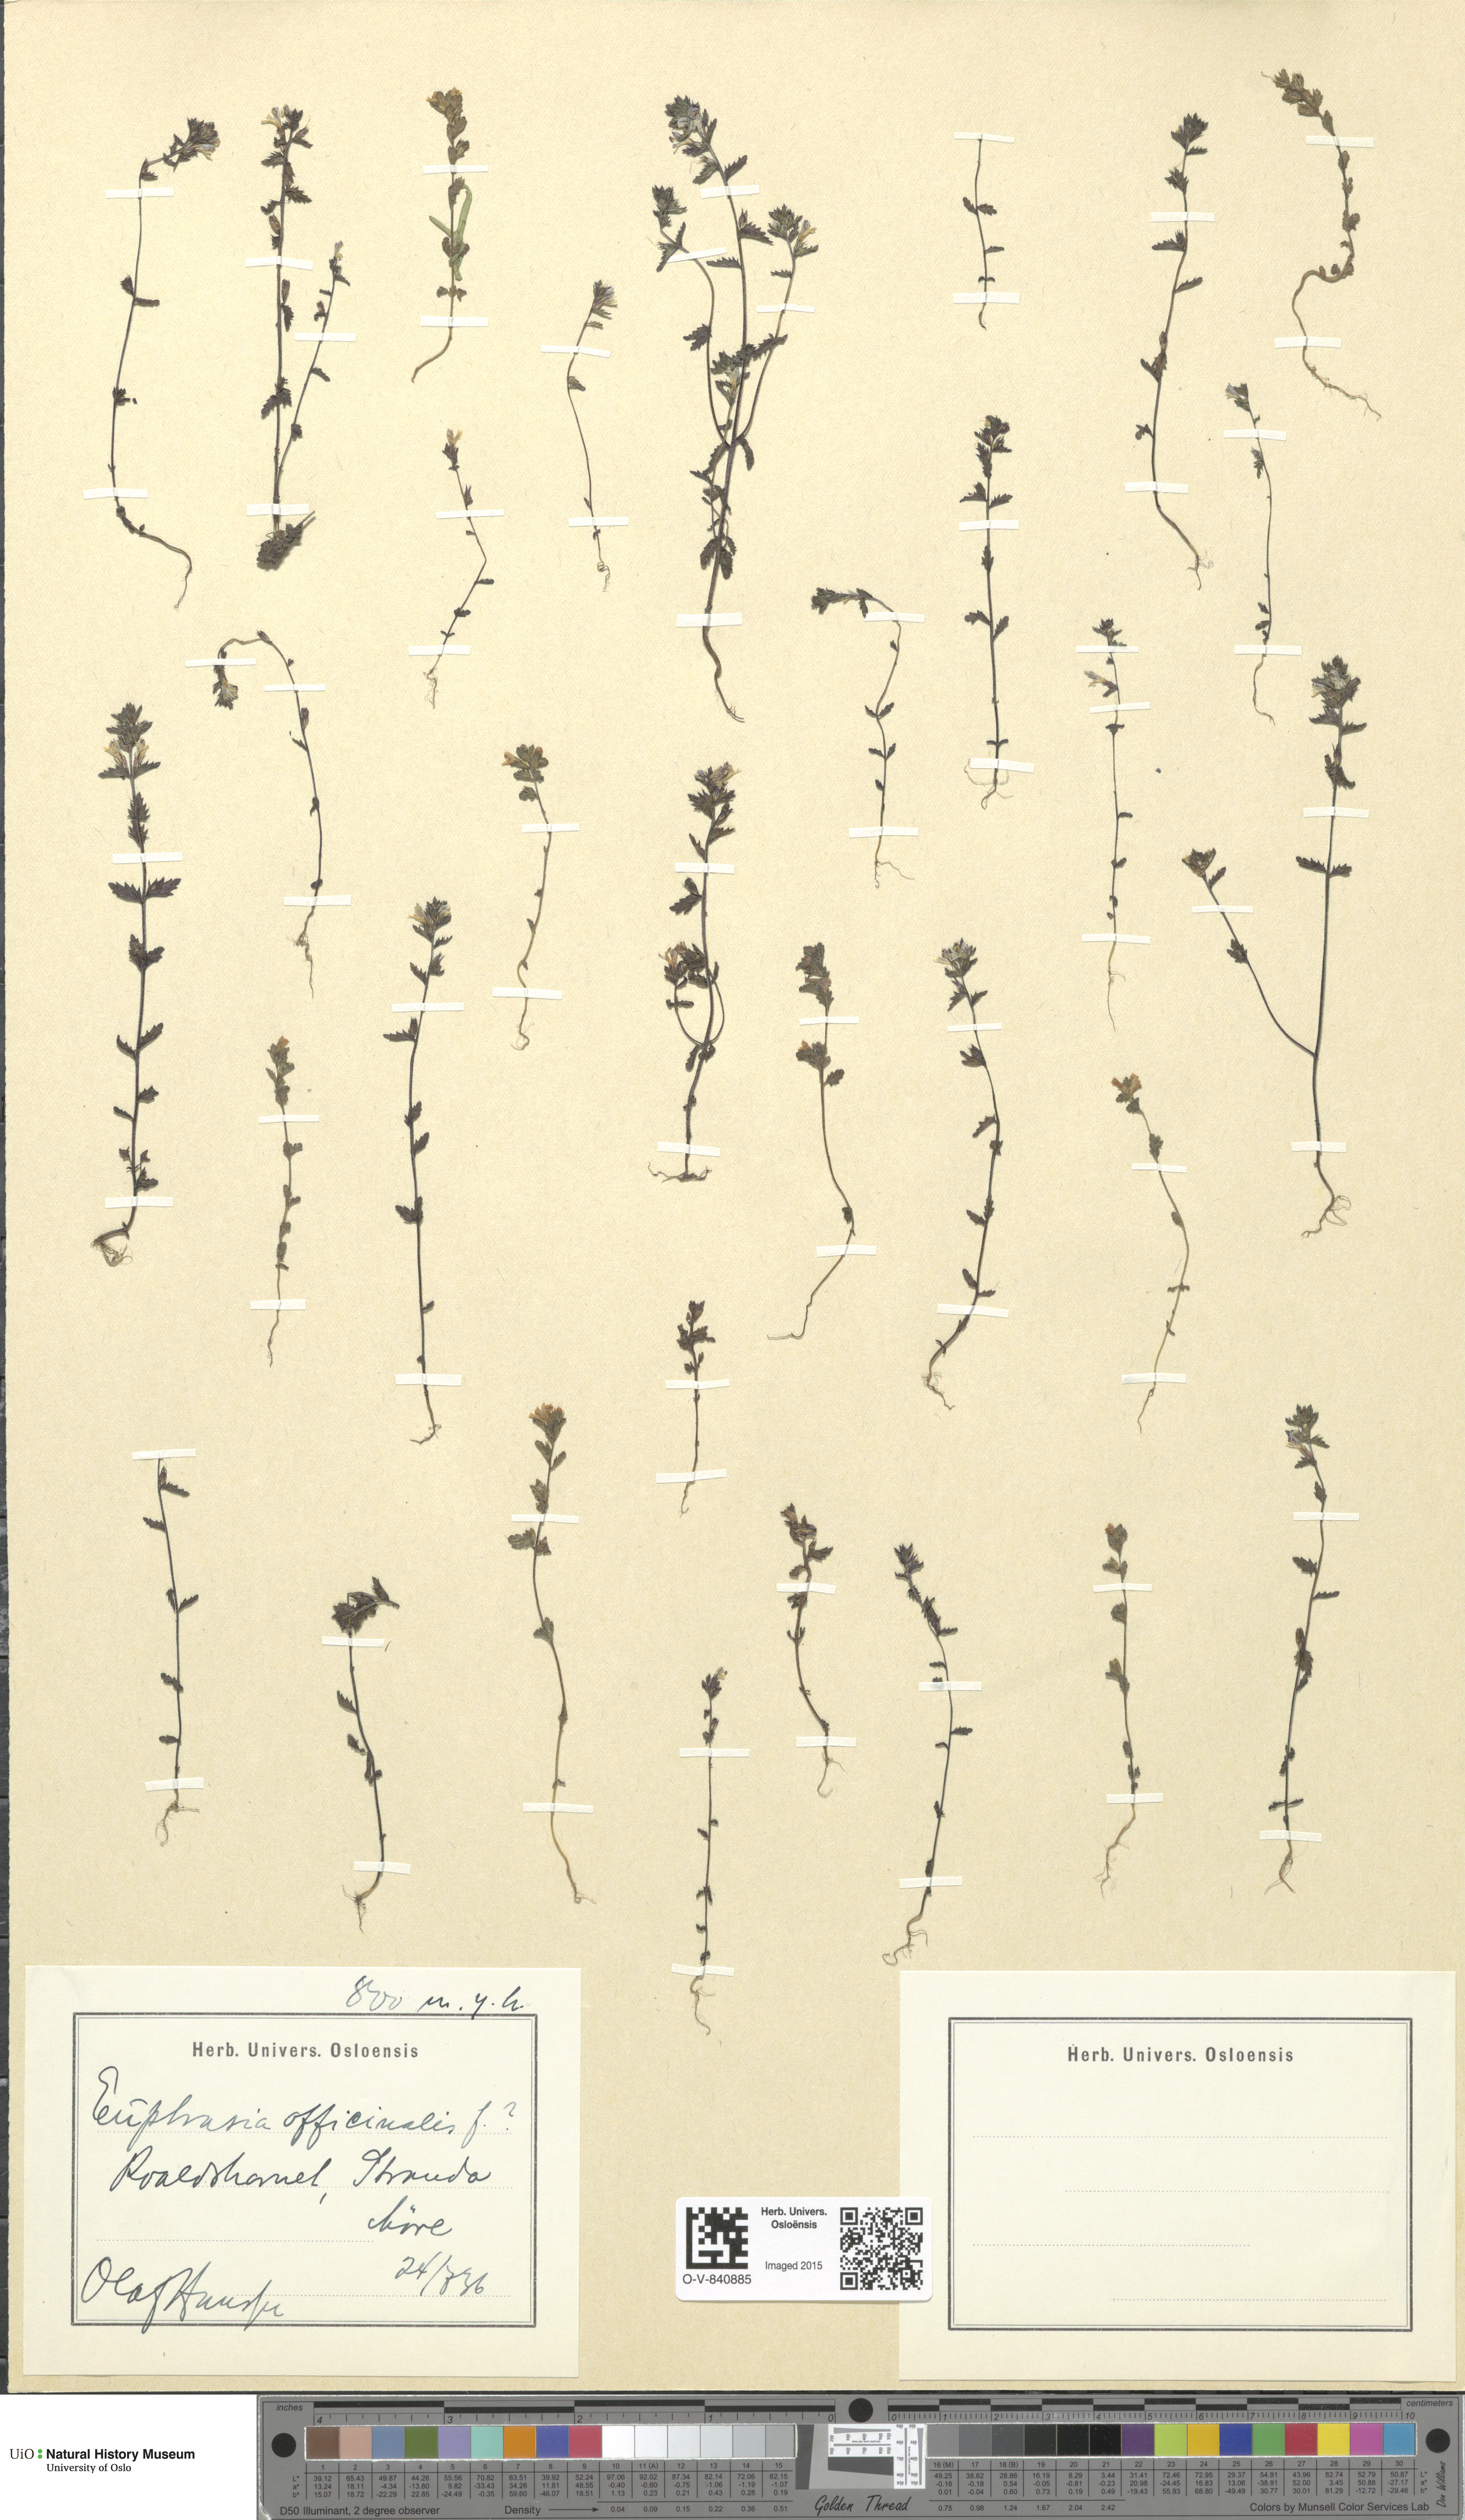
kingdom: Plantae
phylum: Tracheophyta
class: Magnoliopsida
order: Lamiales
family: Orobanchaceae
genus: Euphrasia
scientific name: Euphrasia stricta
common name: Drug eyebright
